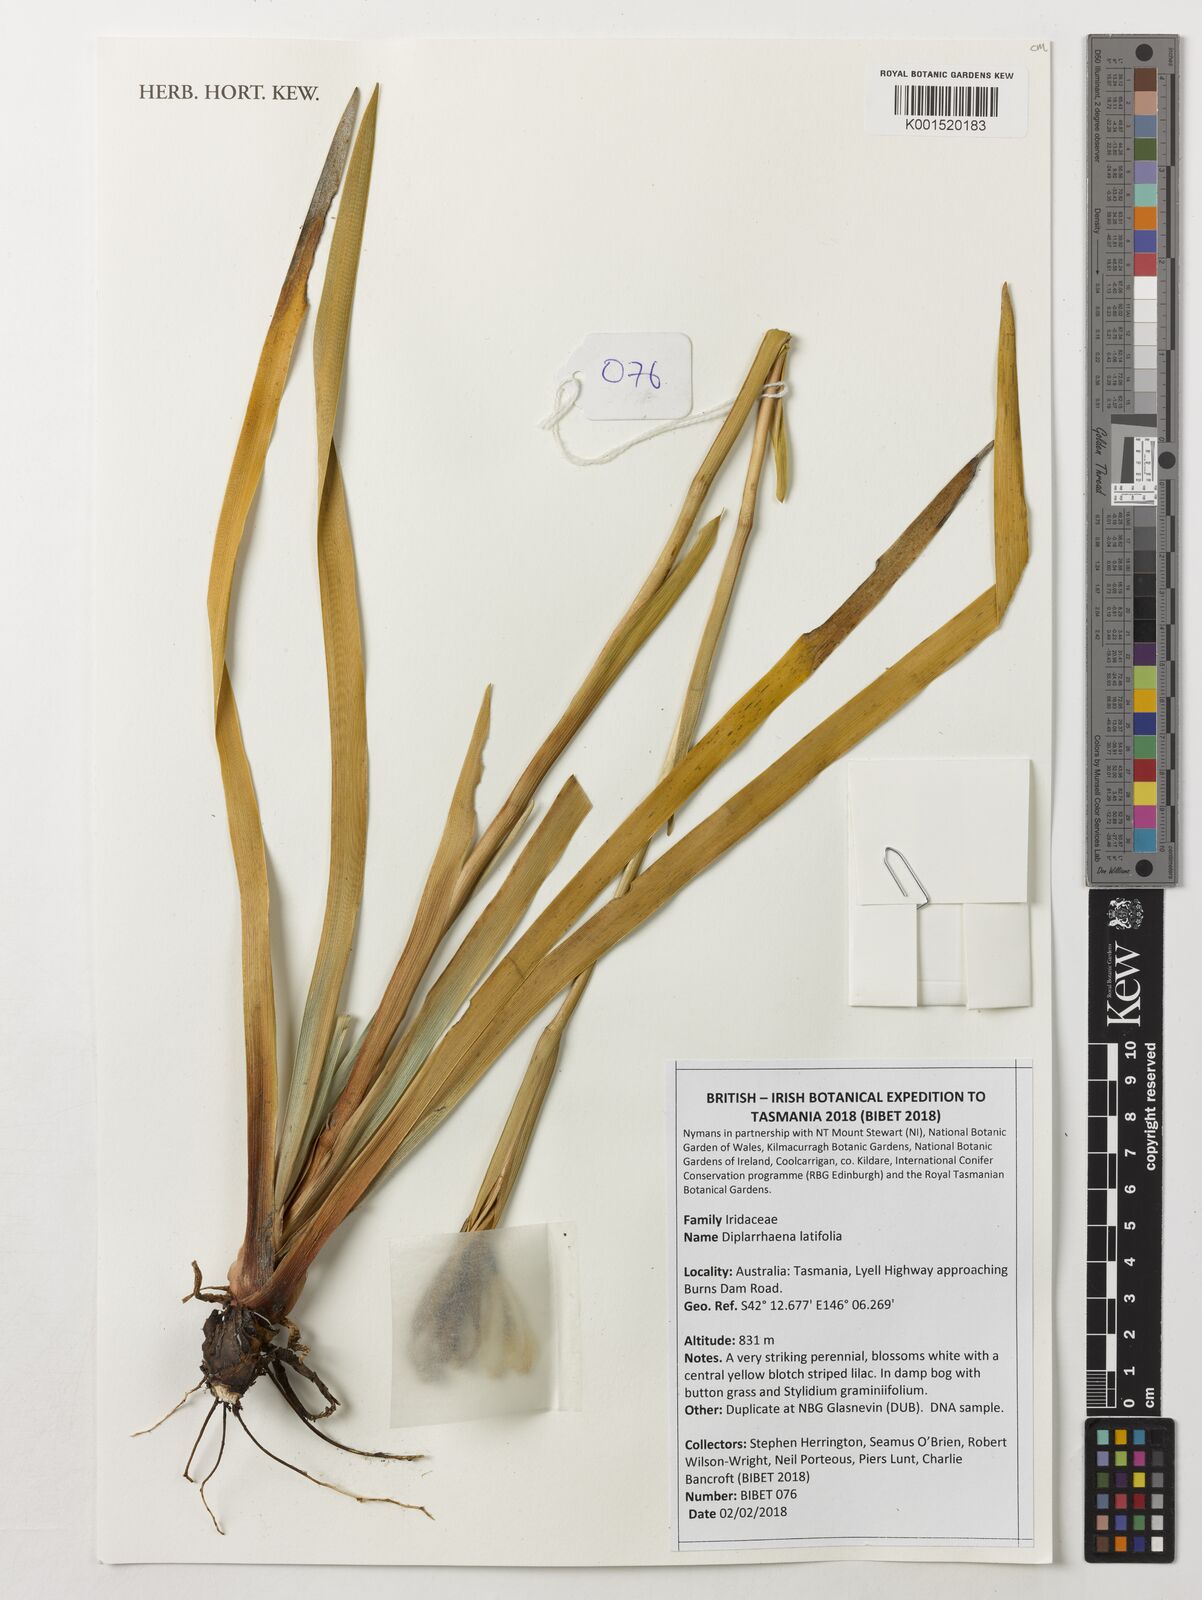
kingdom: Plantae
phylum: Tracheophyta
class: Liliopsida
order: Asparagales
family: Iridaceae
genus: Diplarrena
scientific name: Diplarrena latifolia
